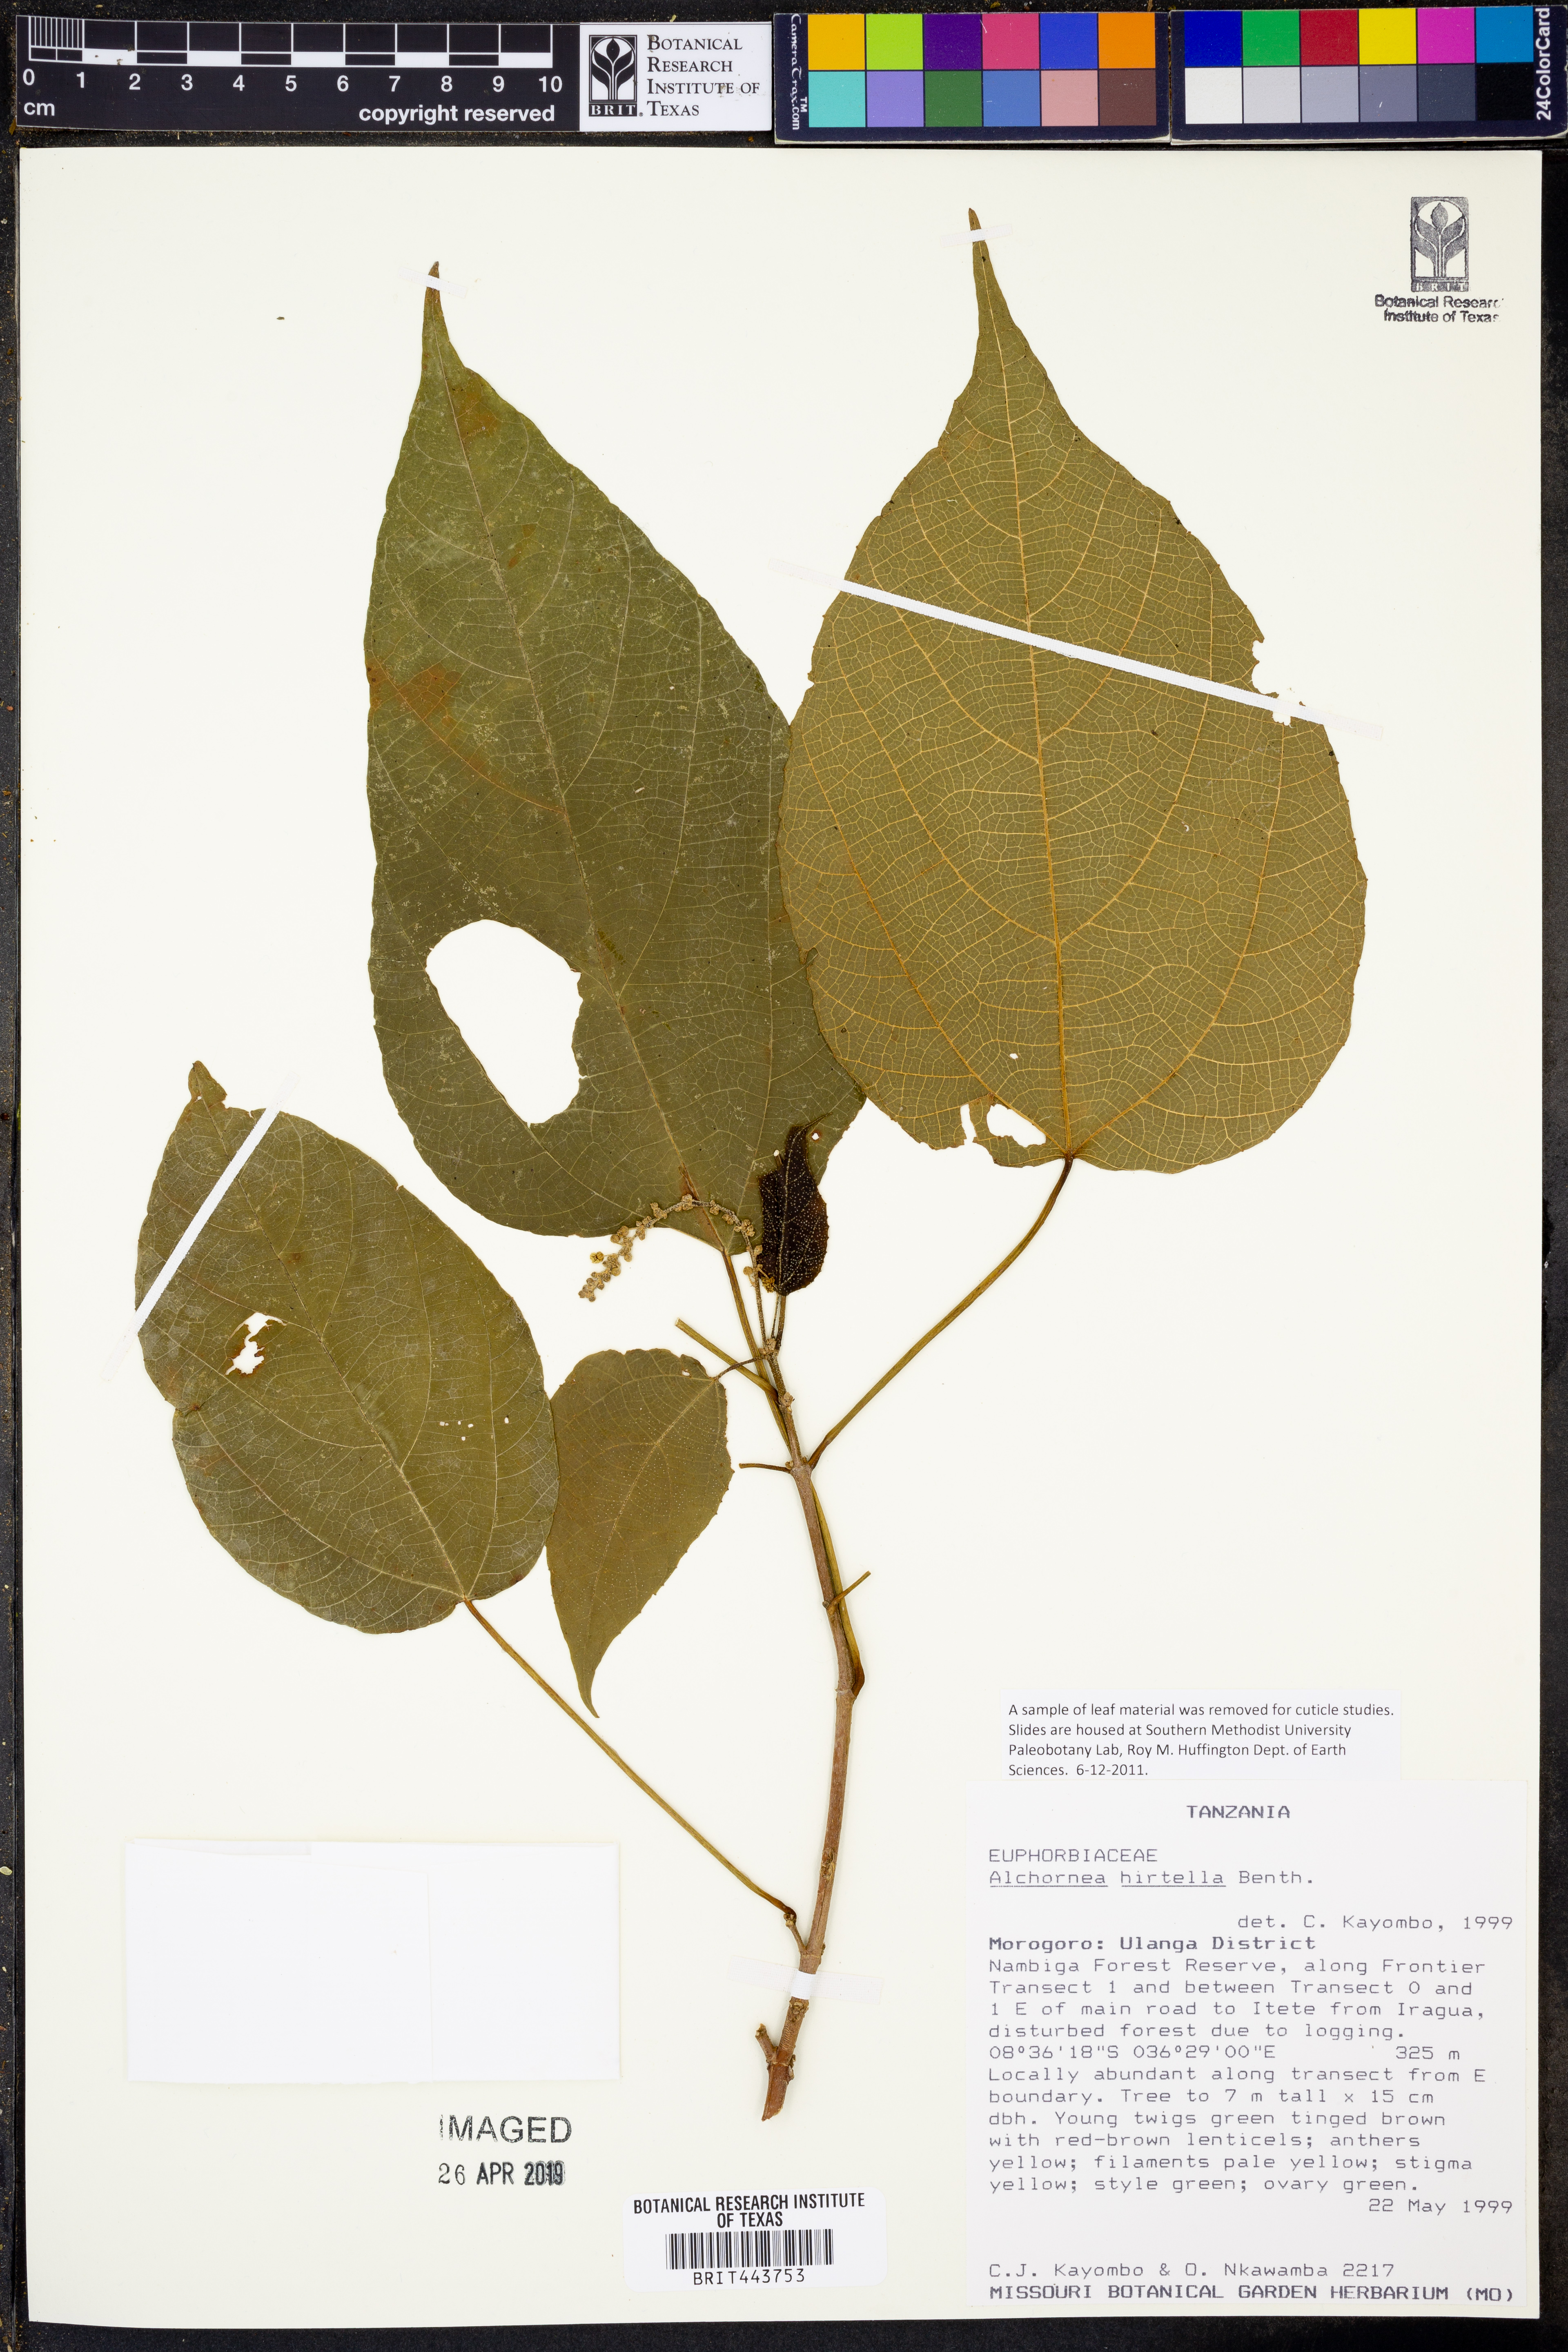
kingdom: Plantae
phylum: Tracheophyta
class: Magnoliopsida
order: Malpighiales
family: Euphorbiaceae
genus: Alchornea
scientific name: Alchornea hirtella
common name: Forest bead-string
